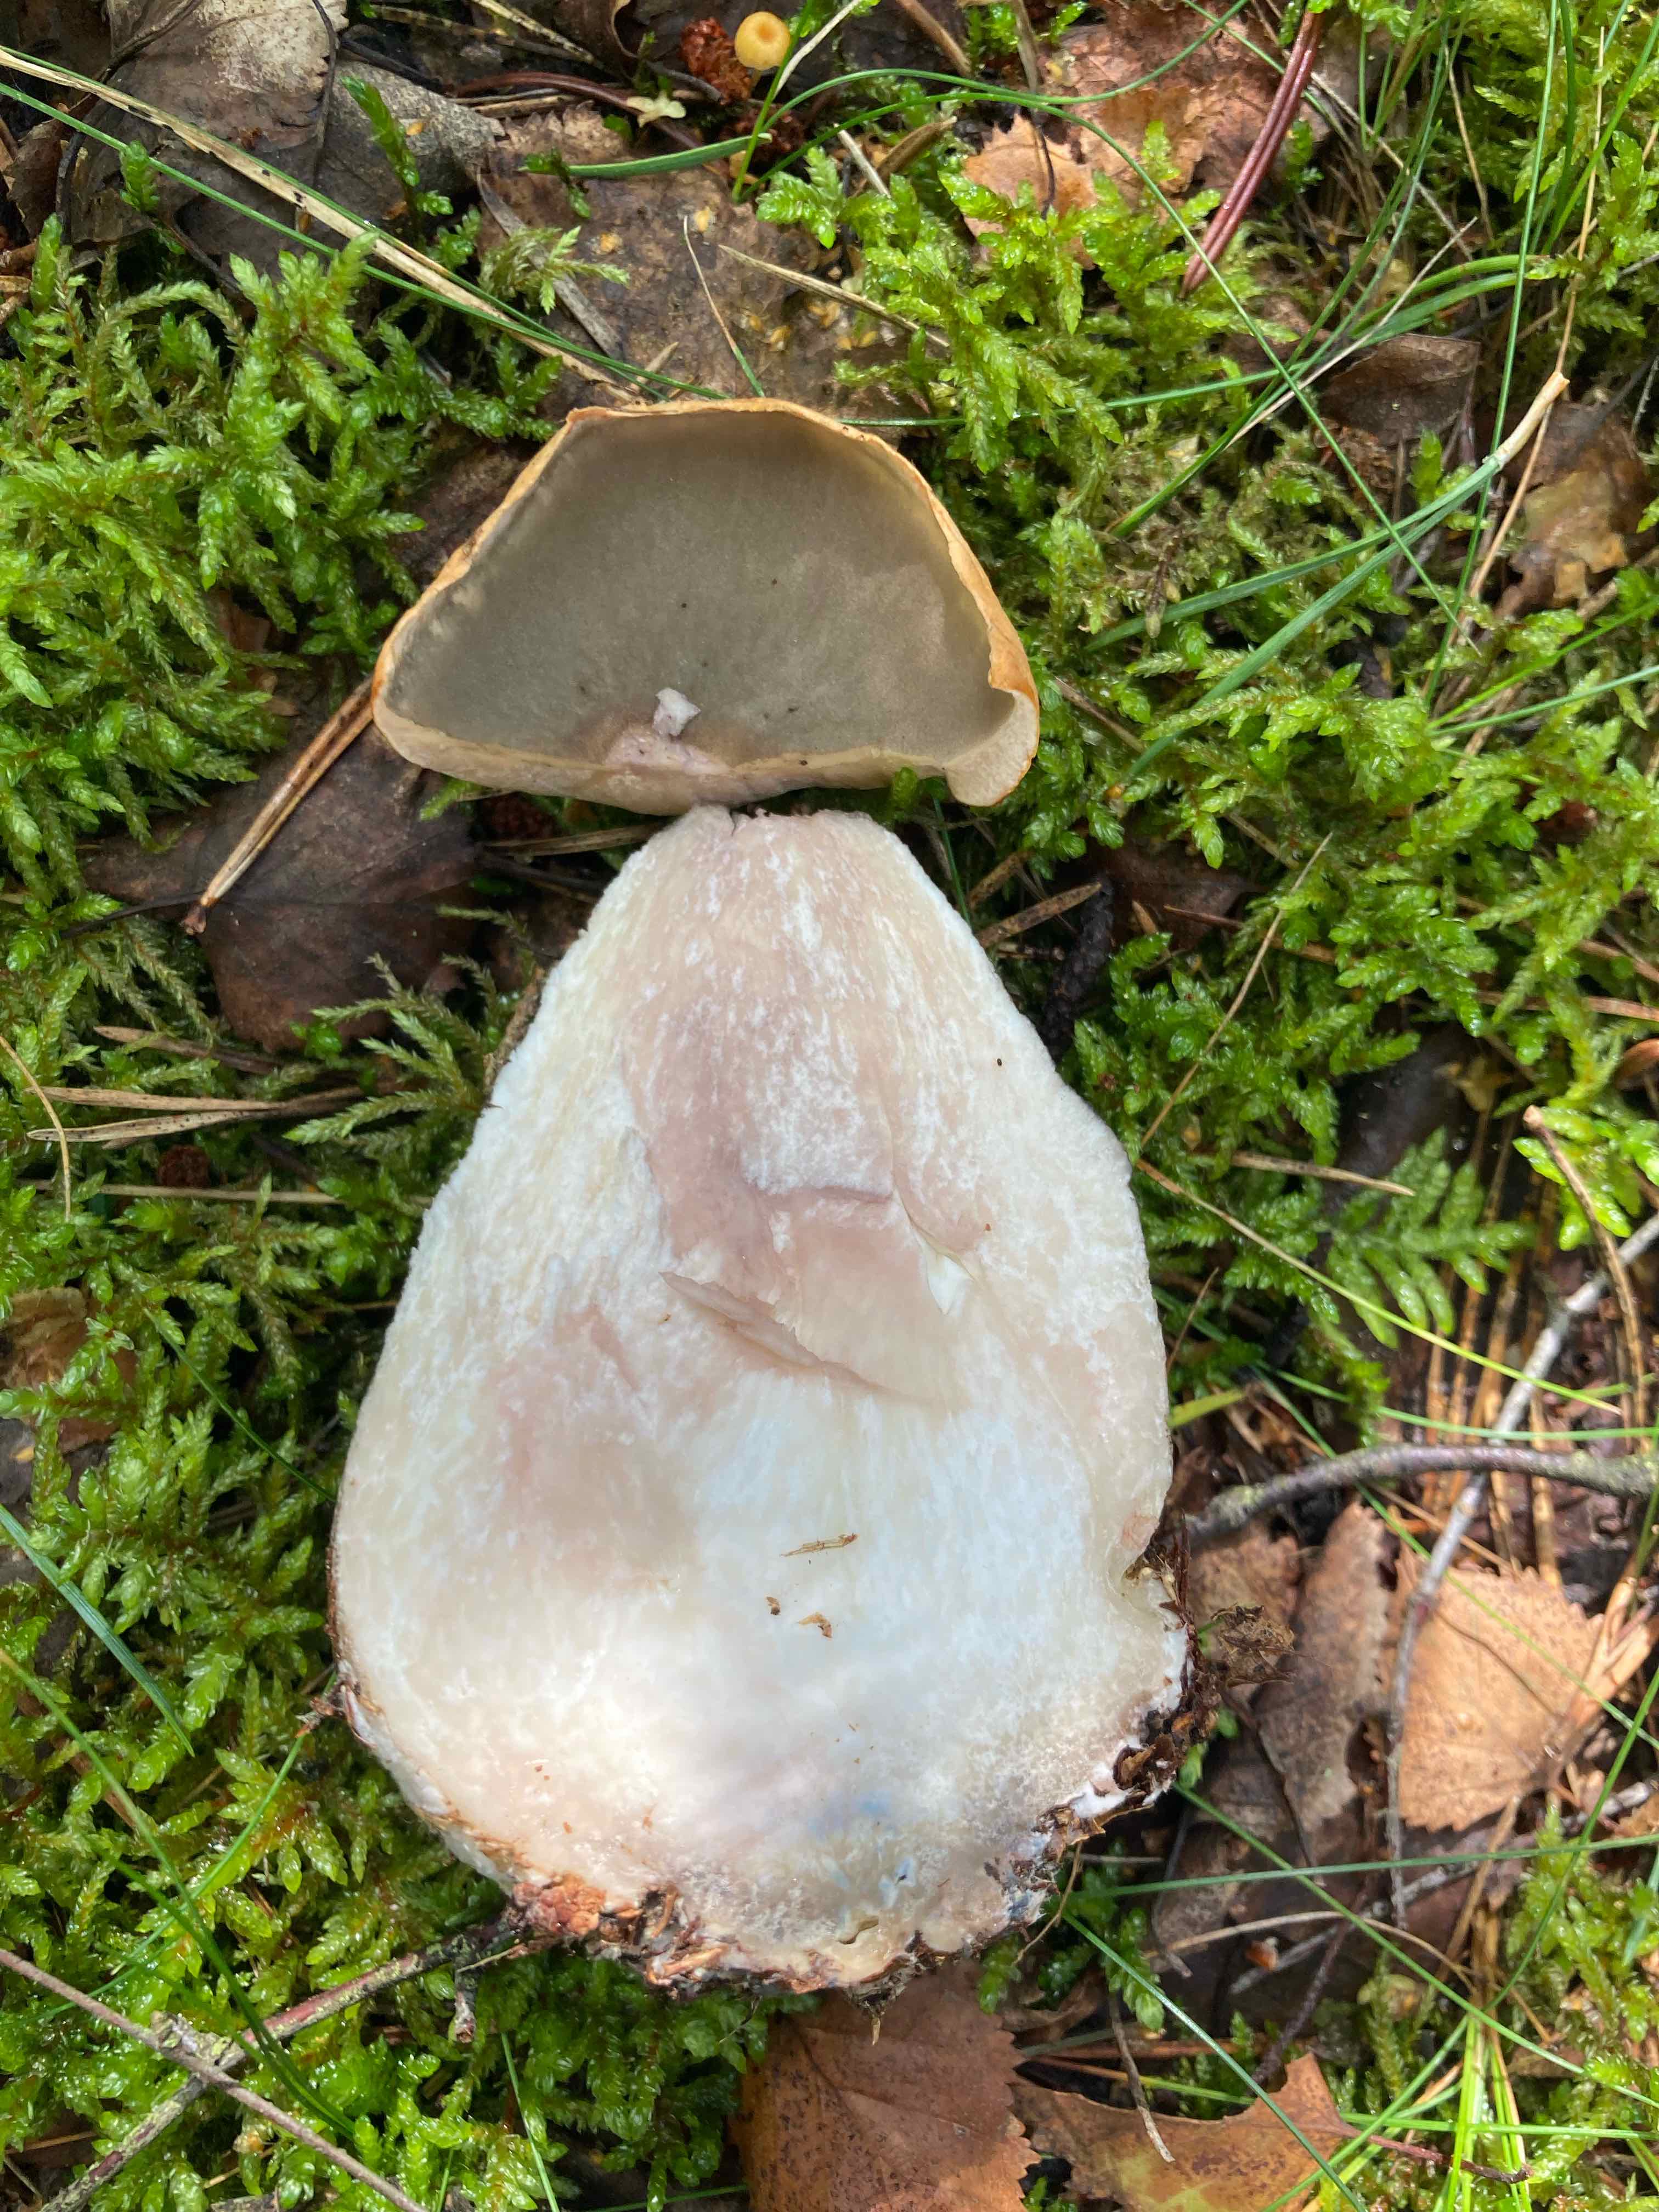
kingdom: Fungi
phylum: Basidiomycota
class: Agaricomycetes
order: Boletales
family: Boletaceae
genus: Leccinum
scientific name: Leccinum versipelle
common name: orange skælrørhat
